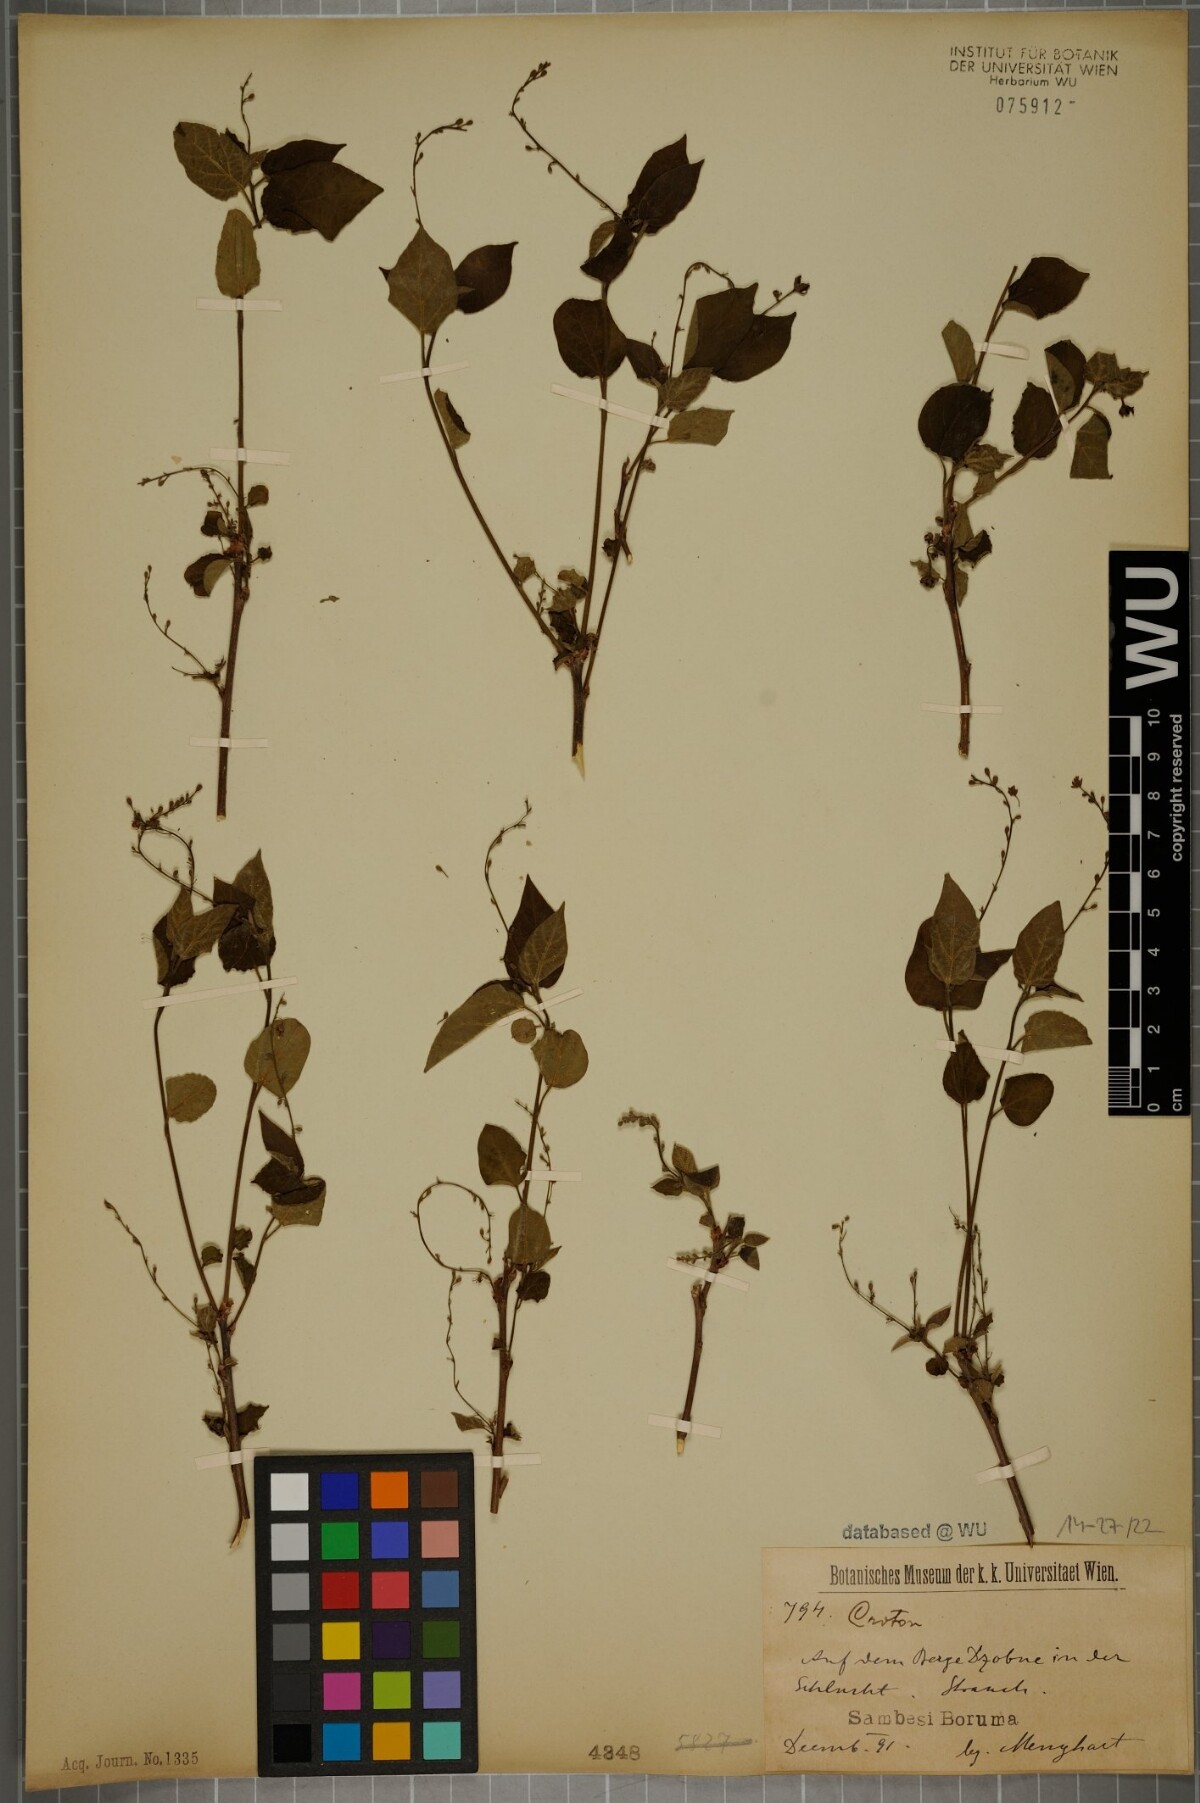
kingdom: Plantae
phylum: Tracheophyta
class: Magnoliopsida
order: Malpighiales
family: Euphorbiaceae
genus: Croton
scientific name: Croton
